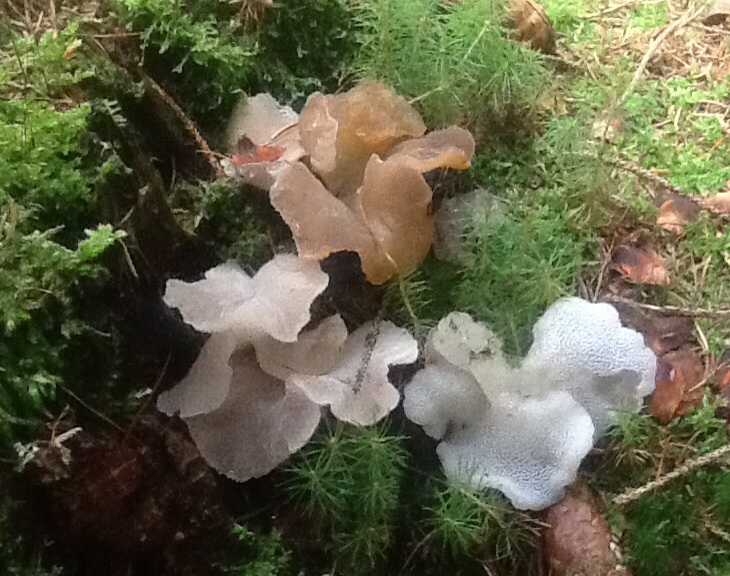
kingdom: Fungi
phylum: Basidiomycota
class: Agaricomycetes
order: Auriculariales
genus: Pseudohydnum
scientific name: Pseudohydnum gelatinosum
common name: bævretand
